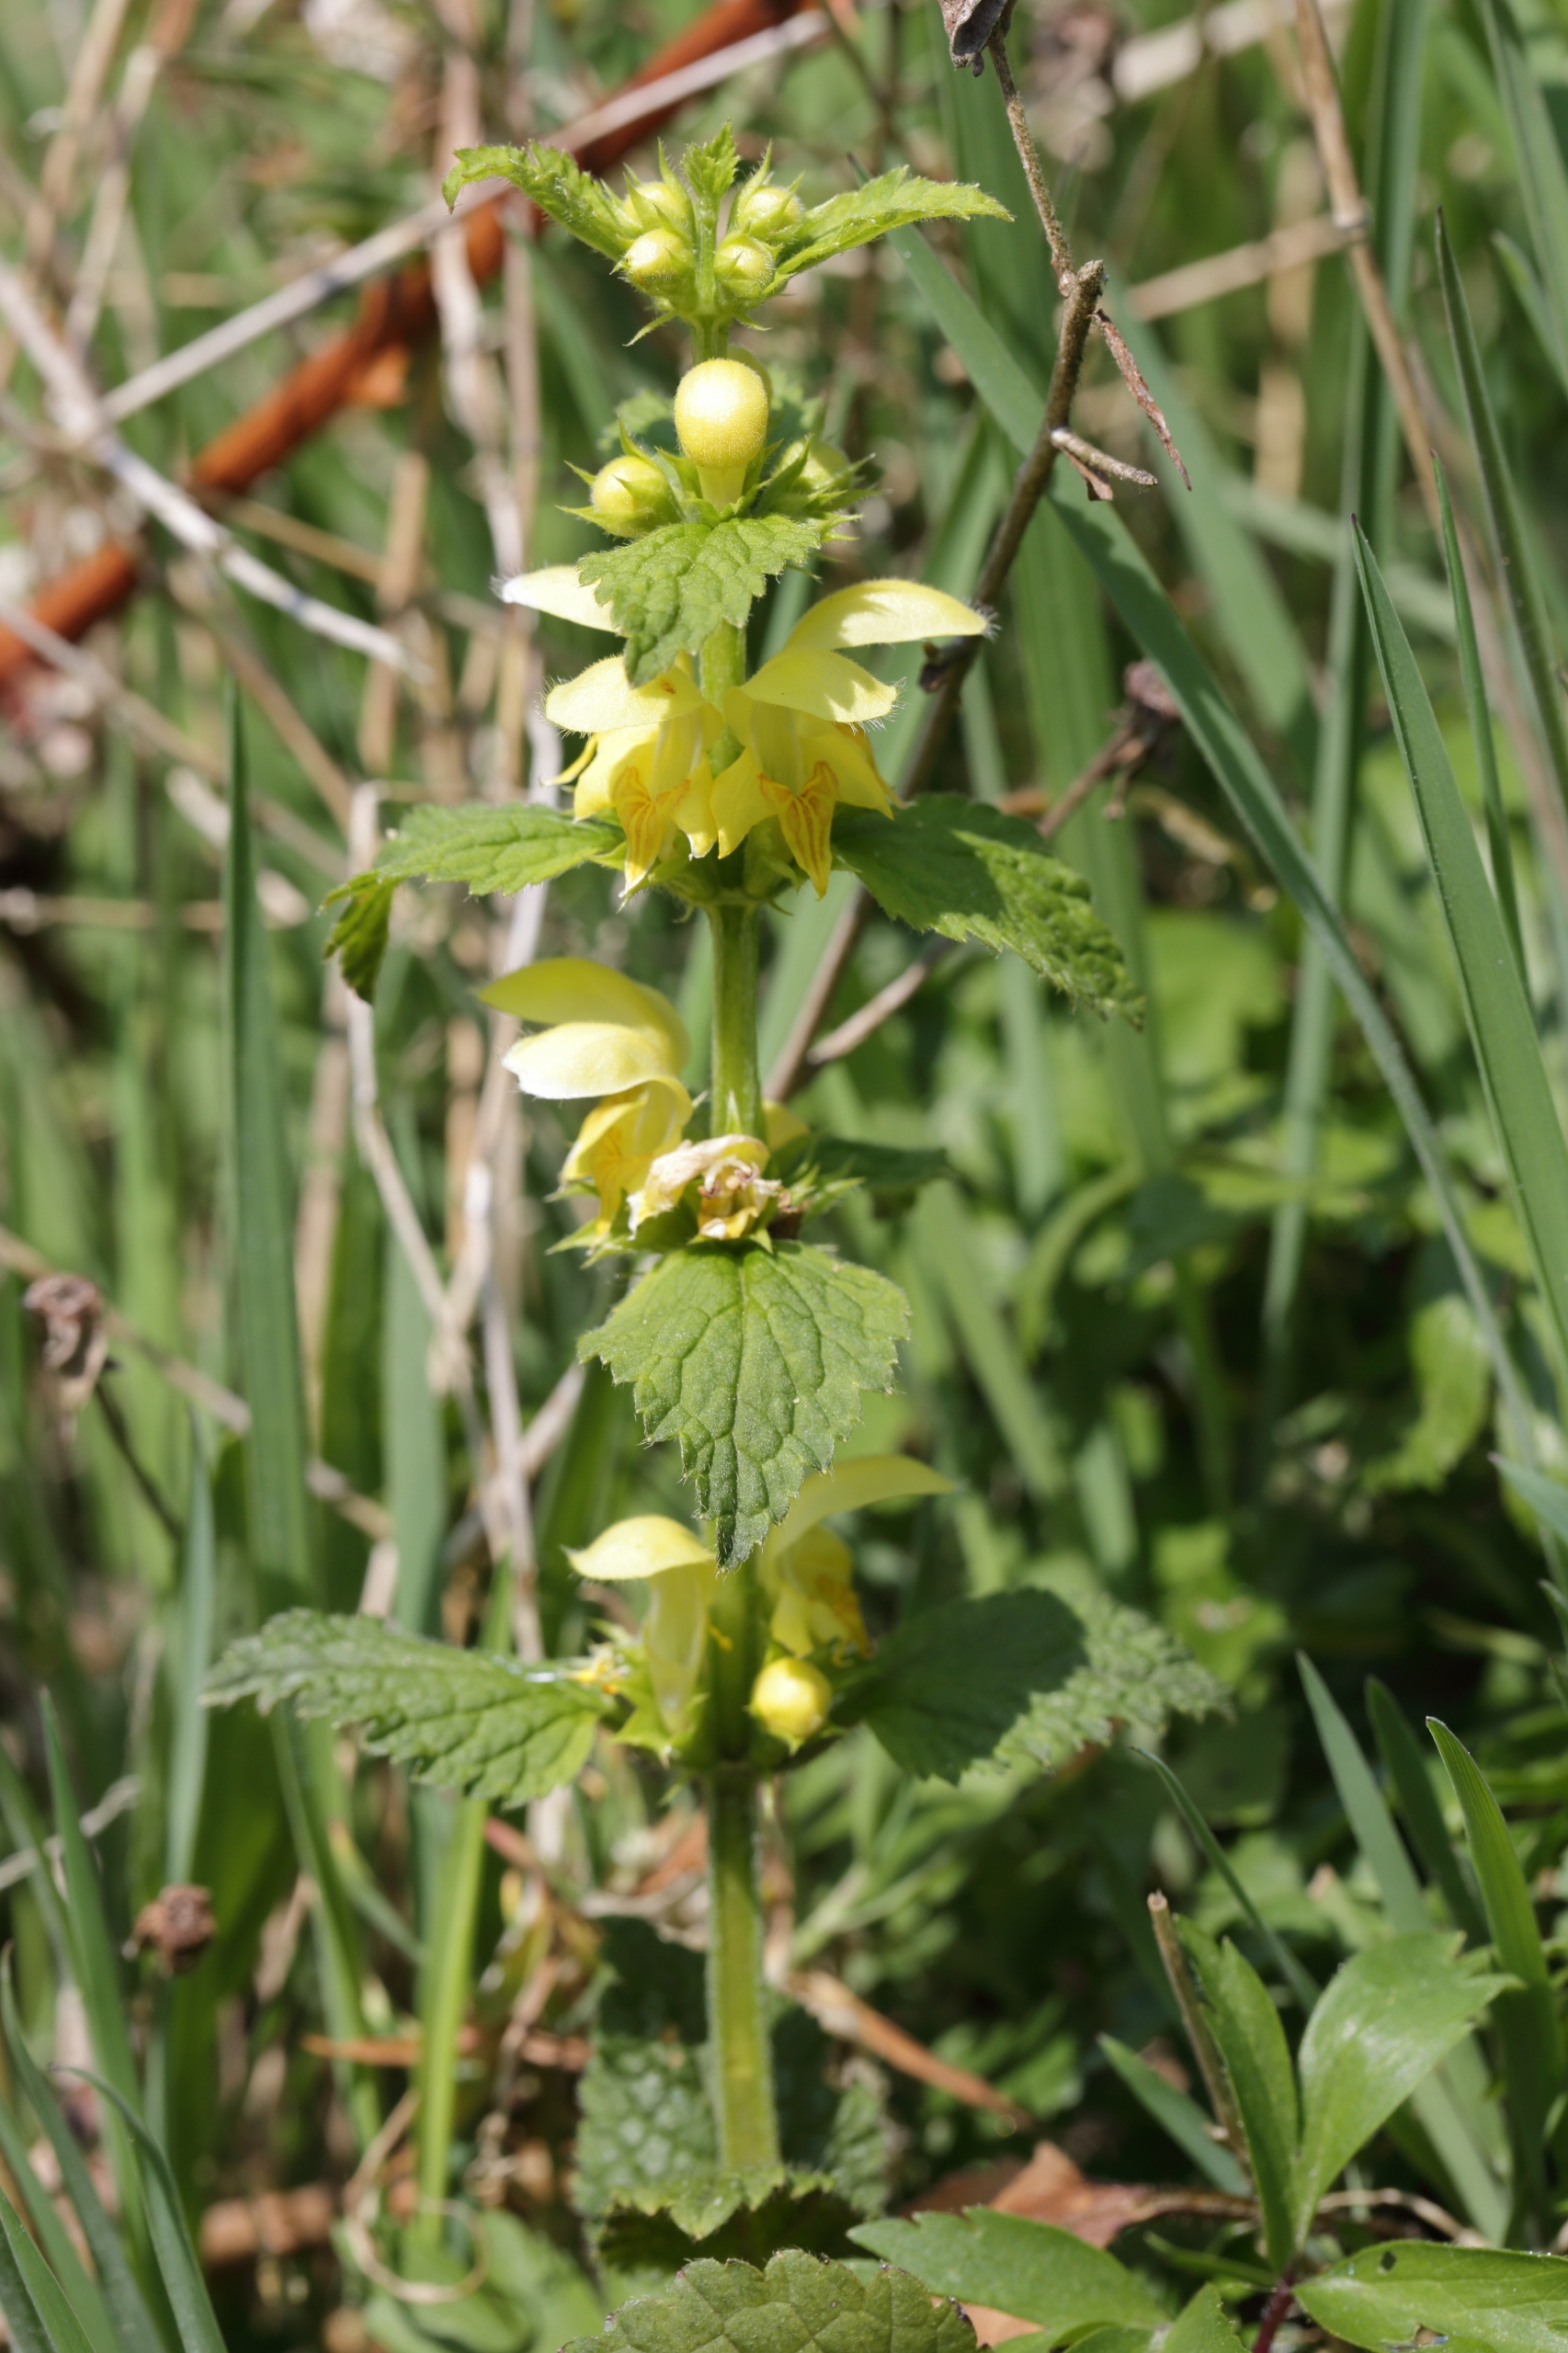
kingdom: Plantae
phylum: Tracheophyta
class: Magnoliopsida
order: Lamiales
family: Lamiaceae
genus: Lamium
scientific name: Lamium galeobdolon
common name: Guldnælde
